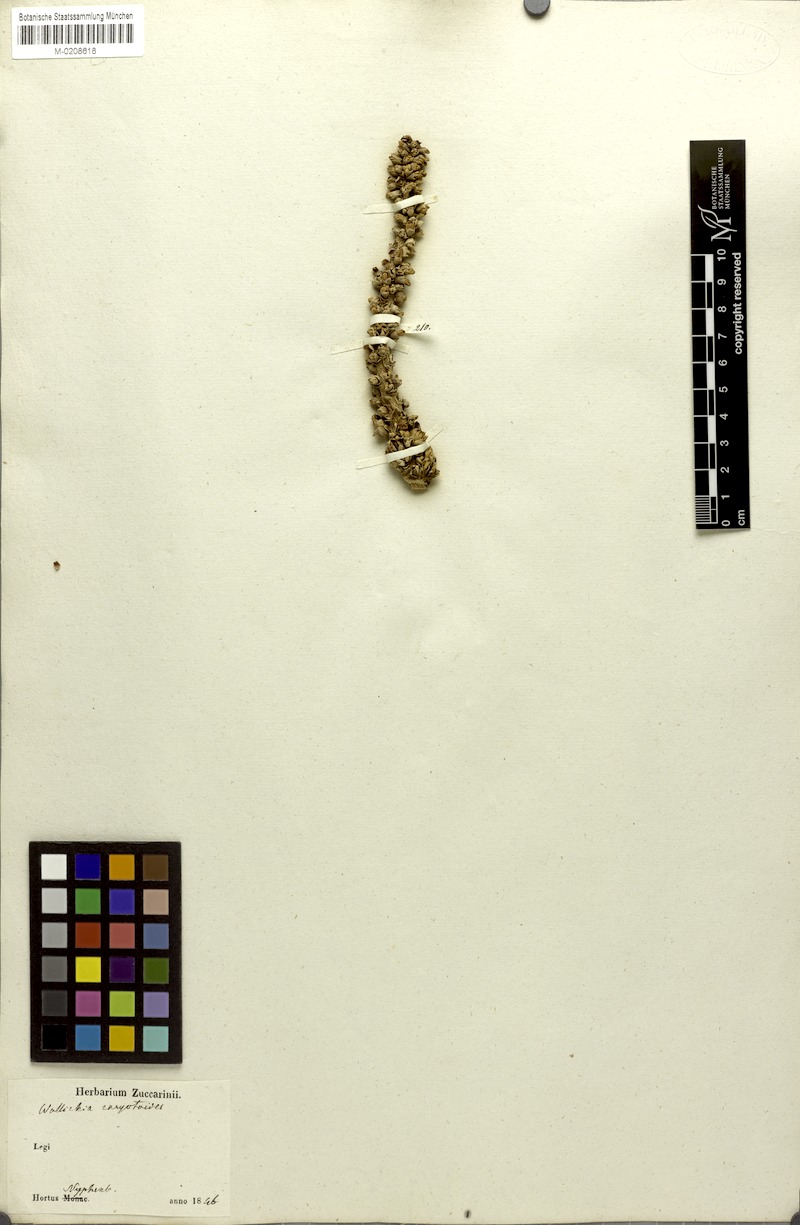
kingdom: Plantae
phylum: Tracheophyta
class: Liliopsida
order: Arecales
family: Arecaceae
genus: Wallichia
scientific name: Wallichia caryotoides
